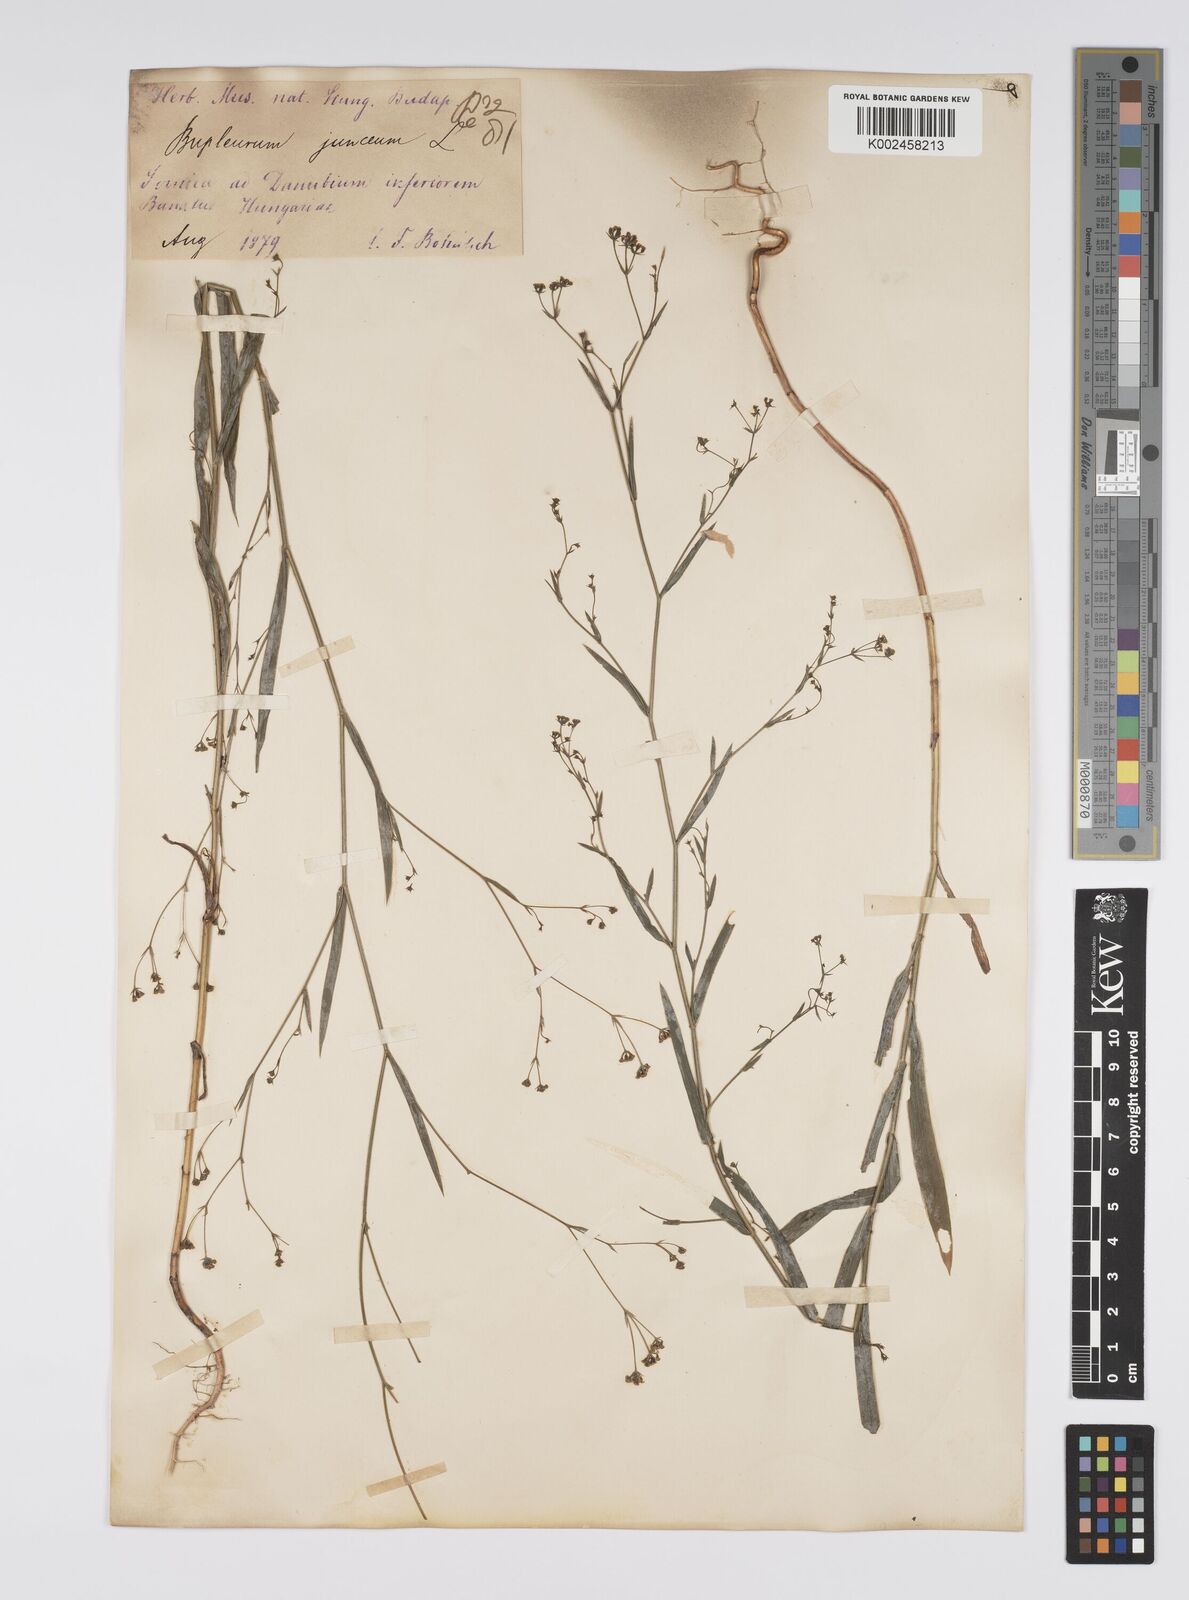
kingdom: Plantae
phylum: Tracheophyta
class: Magnoliopsida
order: Apiales
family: Apiaceae
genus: Bupleurum
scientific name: Bupleurum praealtum
